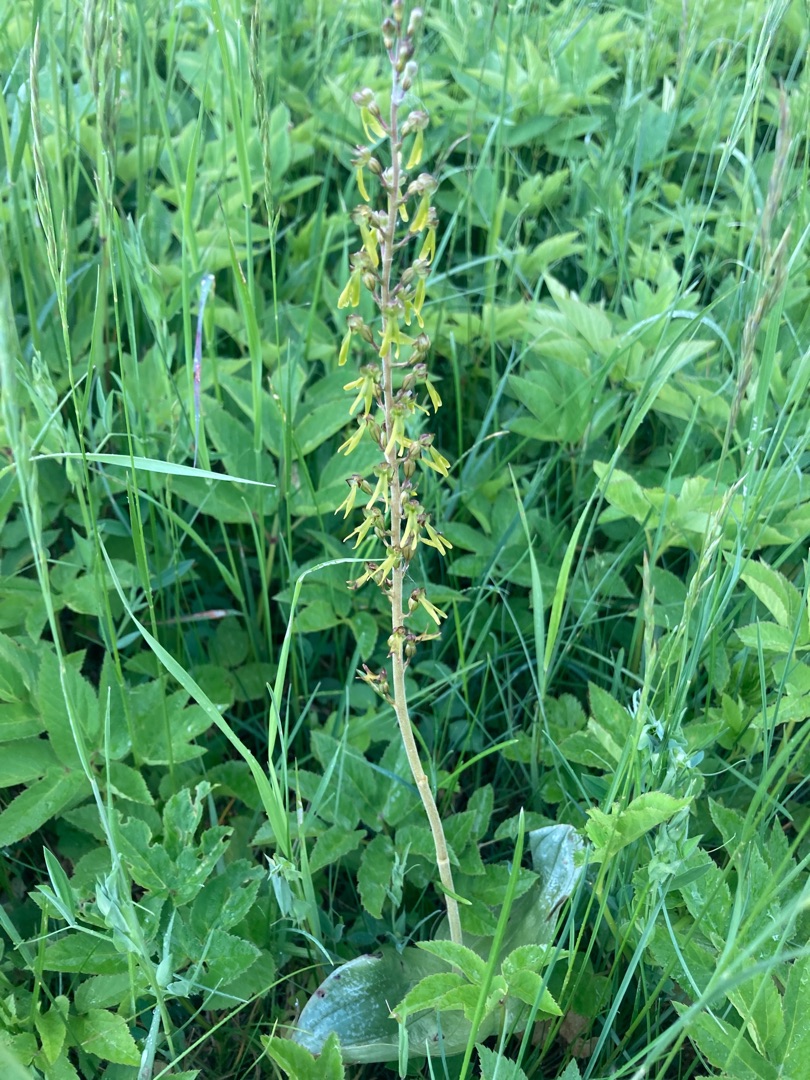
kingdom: Plantae
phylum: Tracheophyta
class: Liliopsida
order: Asparagales
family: Orchidaceae
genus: Neottia
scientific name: Neottia ovata
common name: Ægbladet fliglæbe
